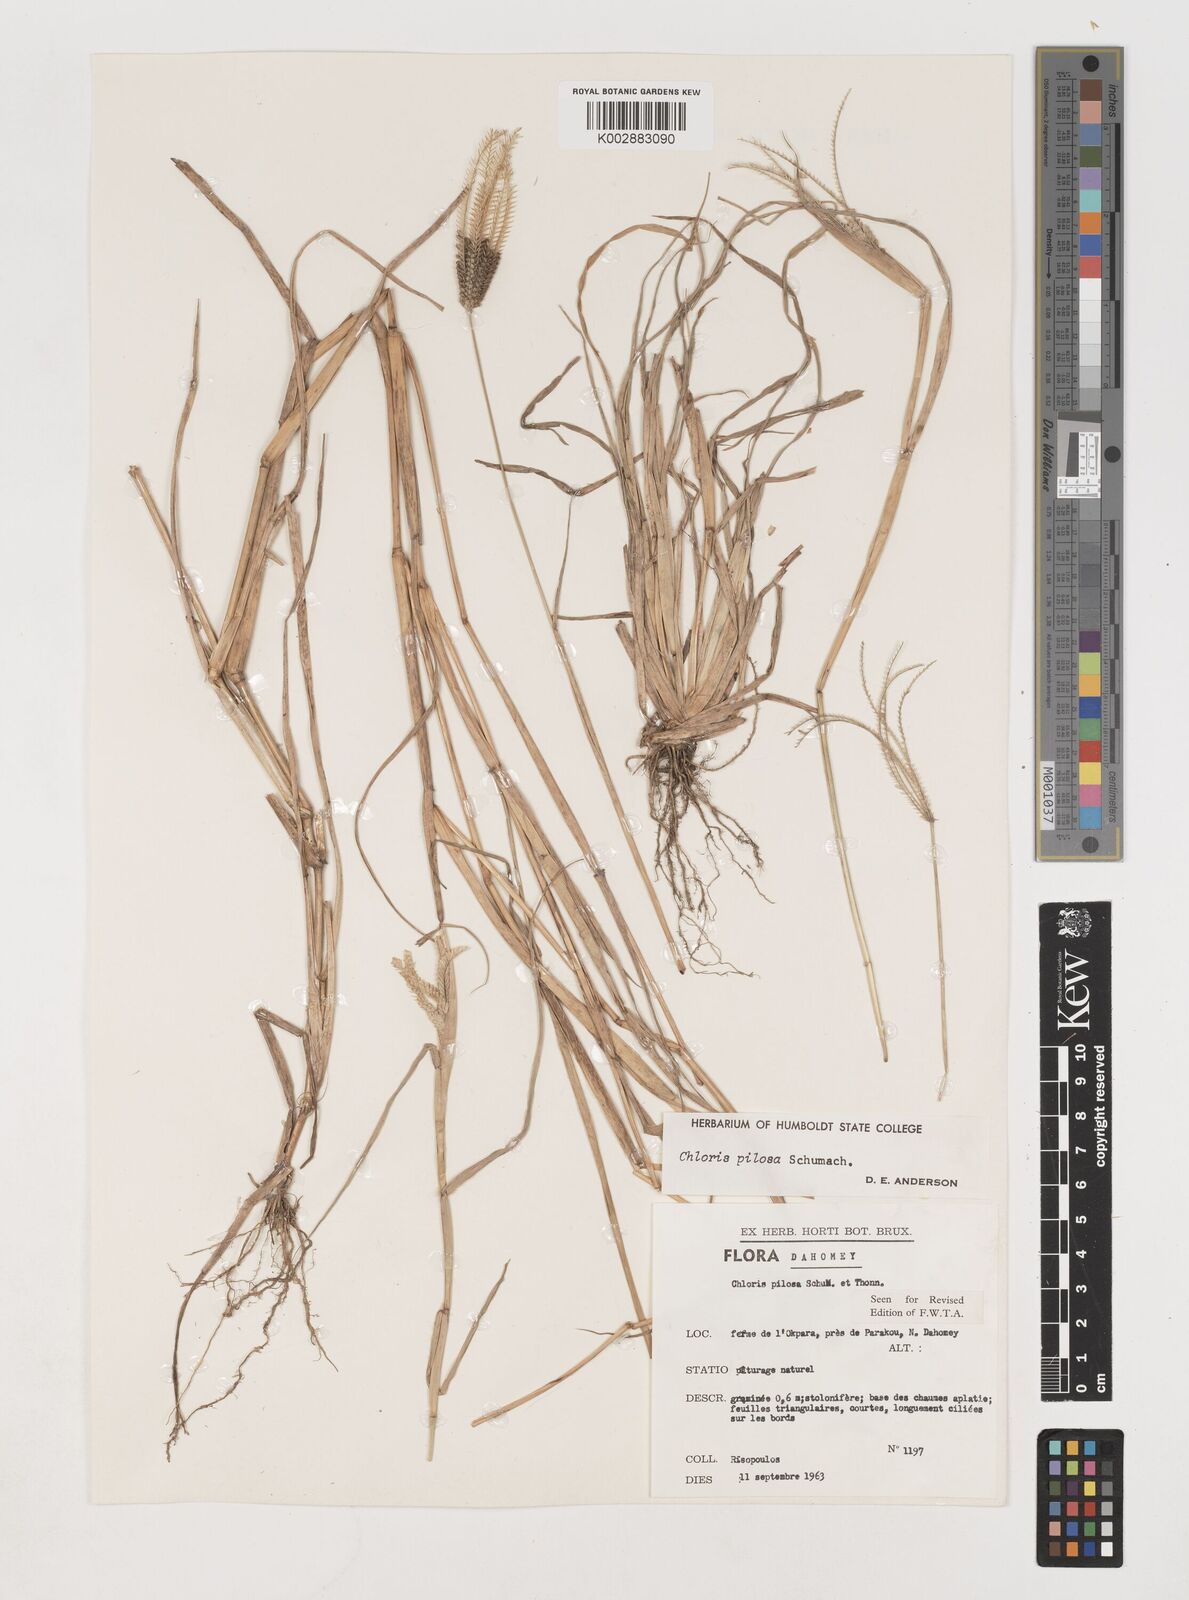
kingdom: Plantae
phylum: Tracheophyta
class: Liliopsida
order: Poales
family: Poaceae
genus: Chloris
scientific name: Chloris pilosa
